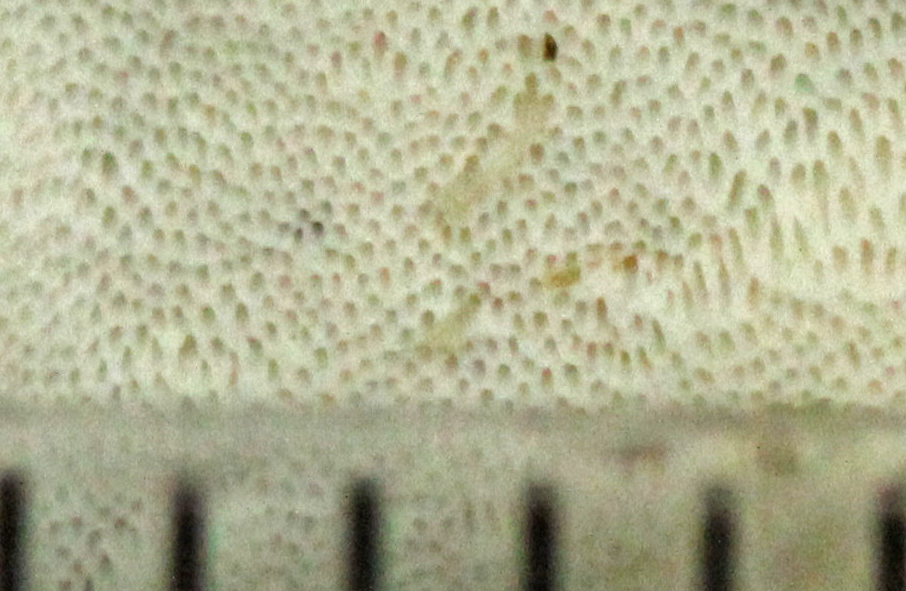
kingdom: Fungi
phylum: Basidiomycota
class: Agaricomycetes
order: Polyporales
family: Incrustoporiaceae
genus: Skeletocutis
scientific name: Skeletocutis nemoralis
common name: stor krystalporesvamp
